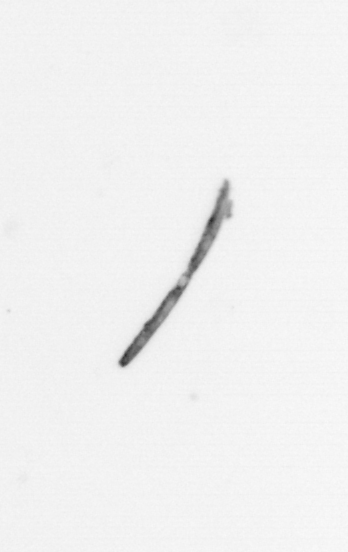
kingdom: Chromista
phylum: Ochrophyta
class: Bacillariophyceae
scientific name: Bacillariophyceae
